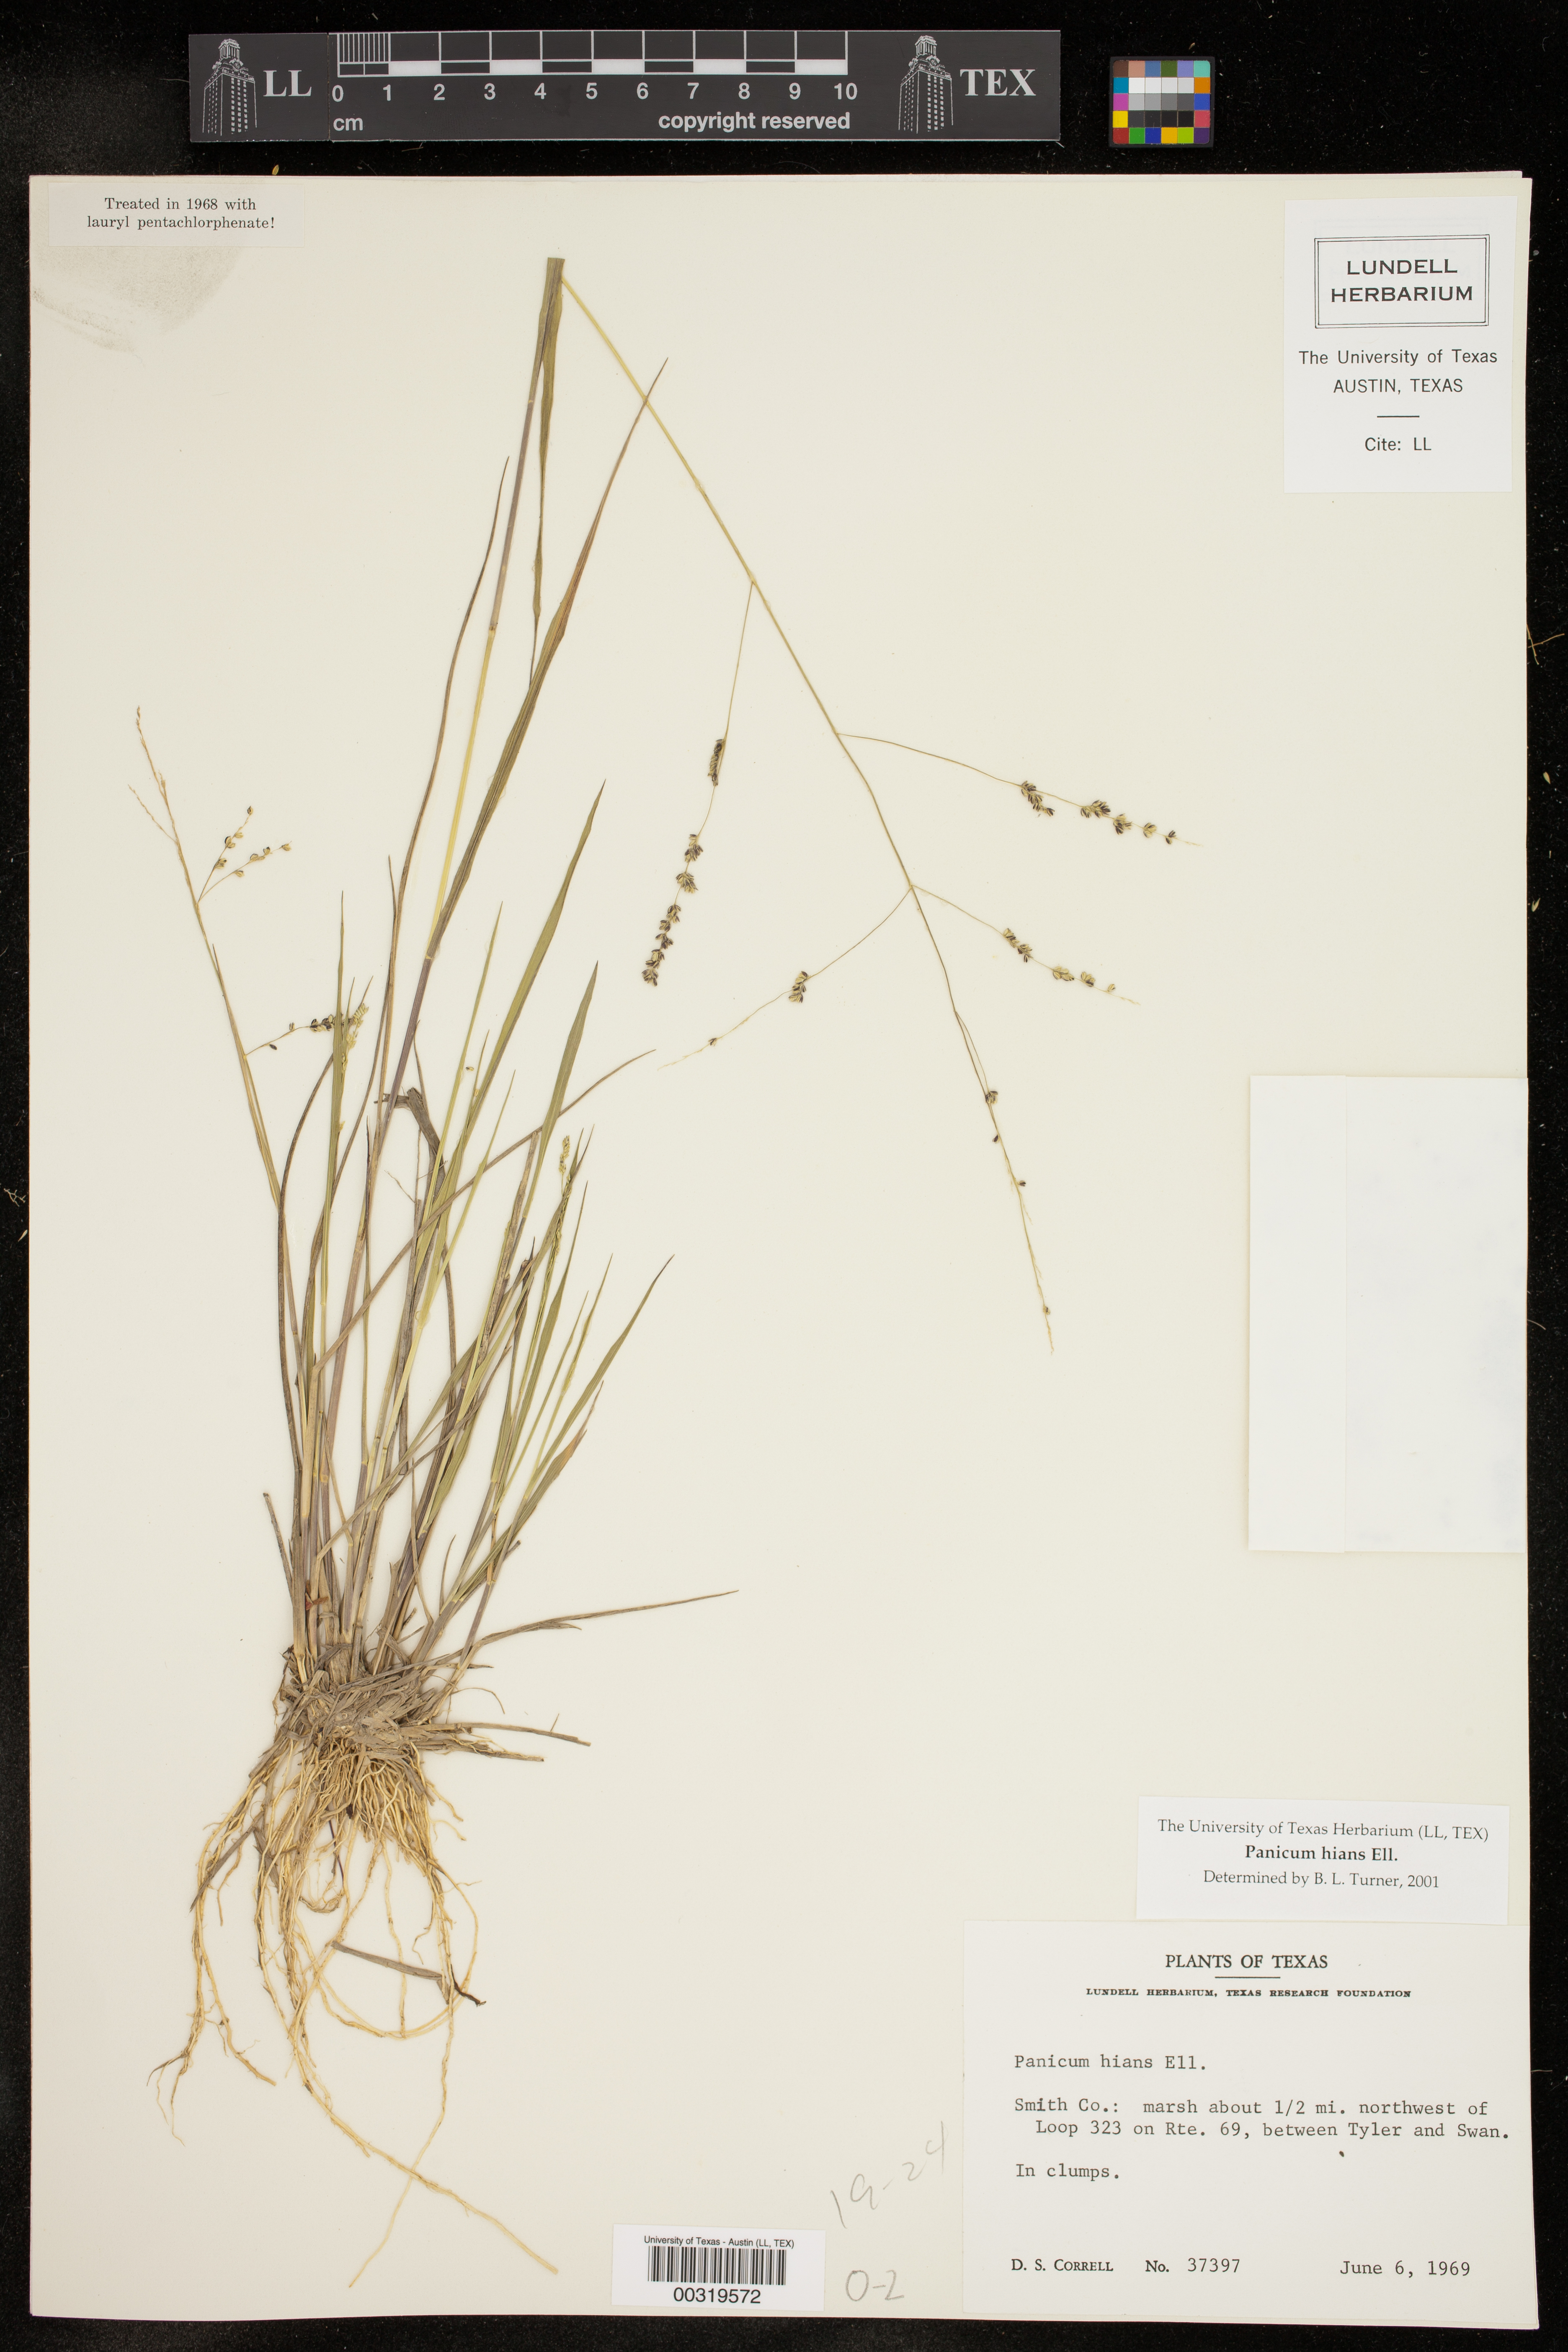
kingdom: Plantae
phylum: Tracheophyta
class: Liliopsida
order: Poales
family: Poaceae
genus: Steinchisma
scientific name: Steinchisma hians
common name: Gaping panic grass
